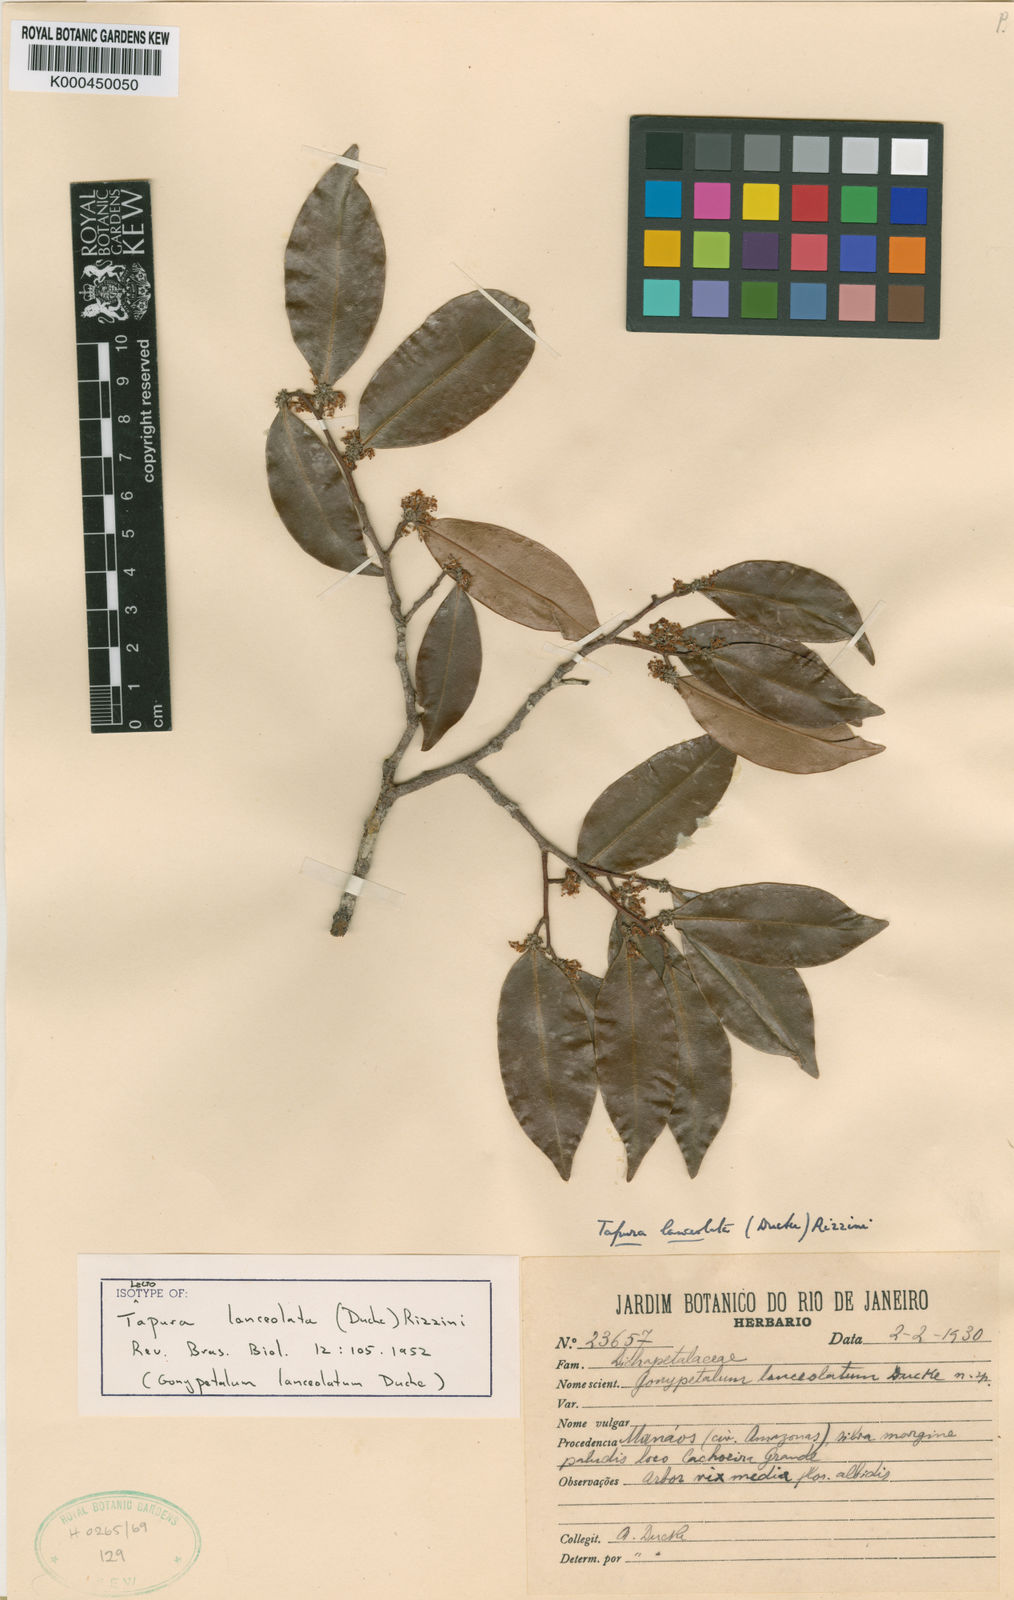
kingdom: Plantae
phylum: Tracheophyta
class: Magnoliopsida
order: Malpighiales
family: Dichapetalaceae
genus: Tapura
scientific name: Tapura lanceolata
